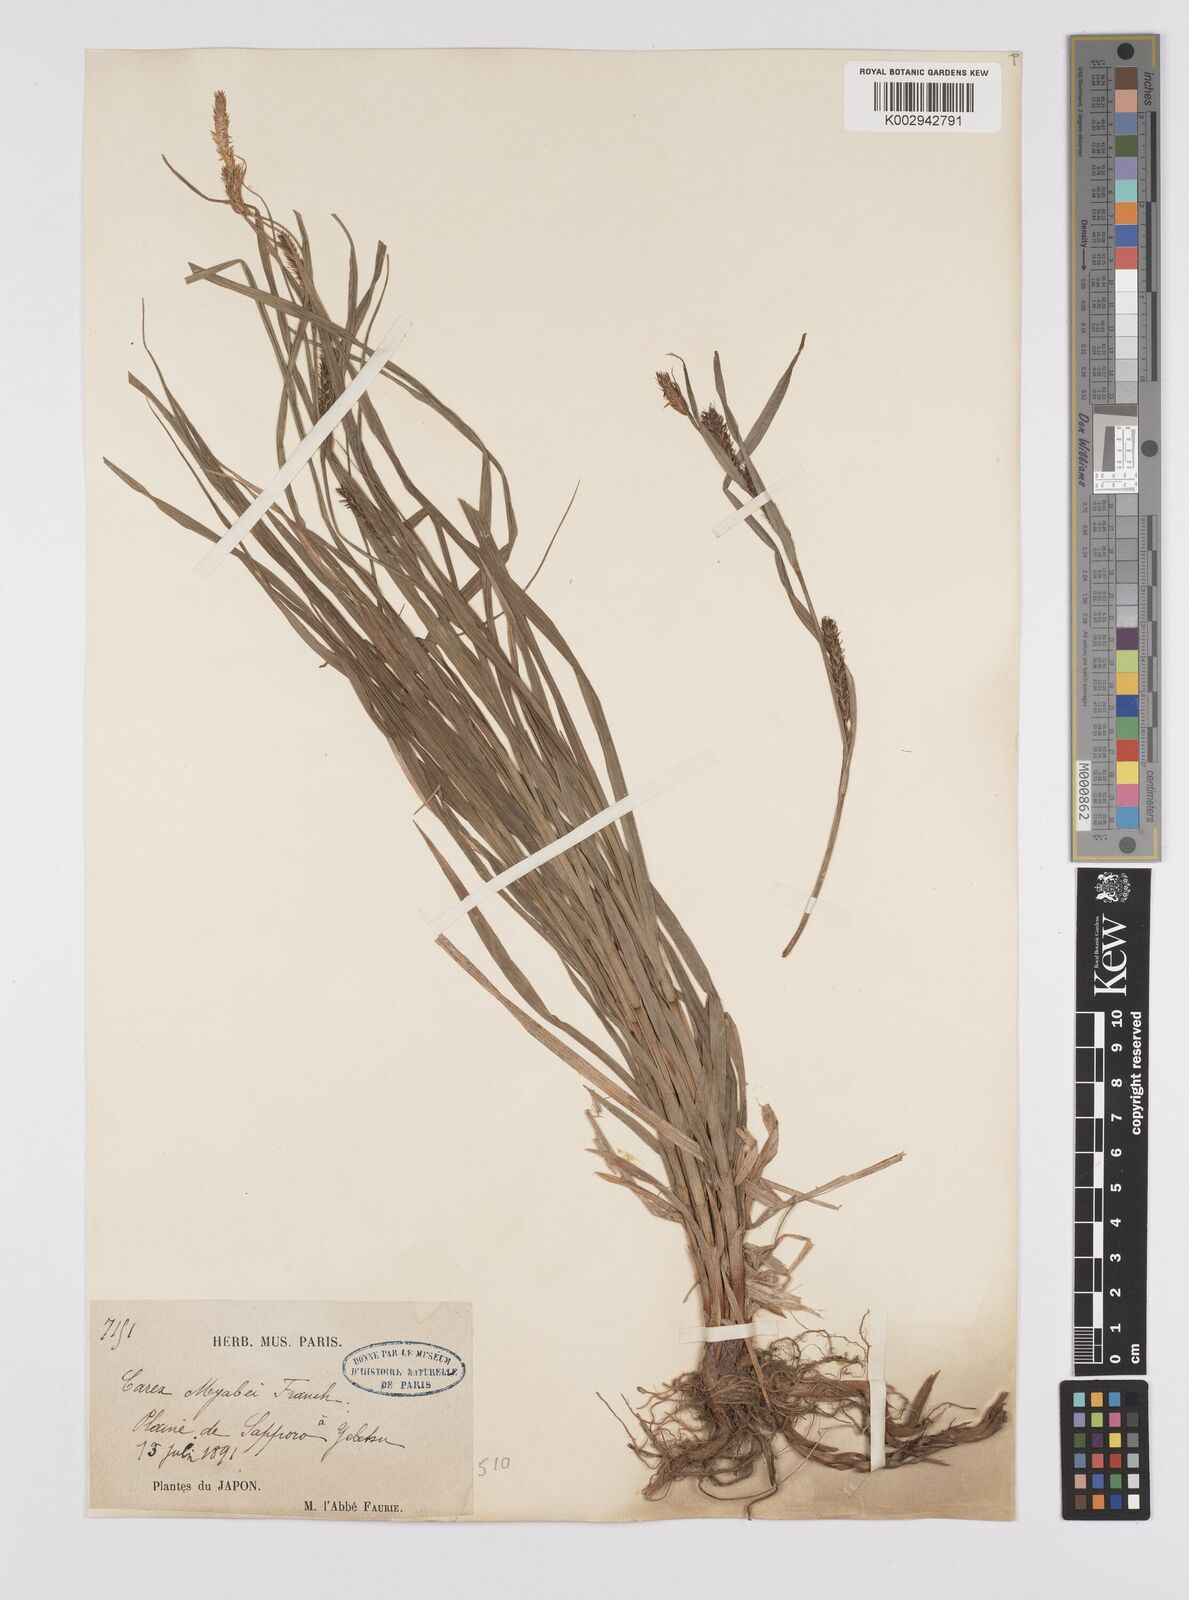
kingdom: Plantae
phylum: Tracheophyta
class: Liliopsida
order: Poales
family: Cyperaceae
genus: Carex
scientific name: Carex fedia
